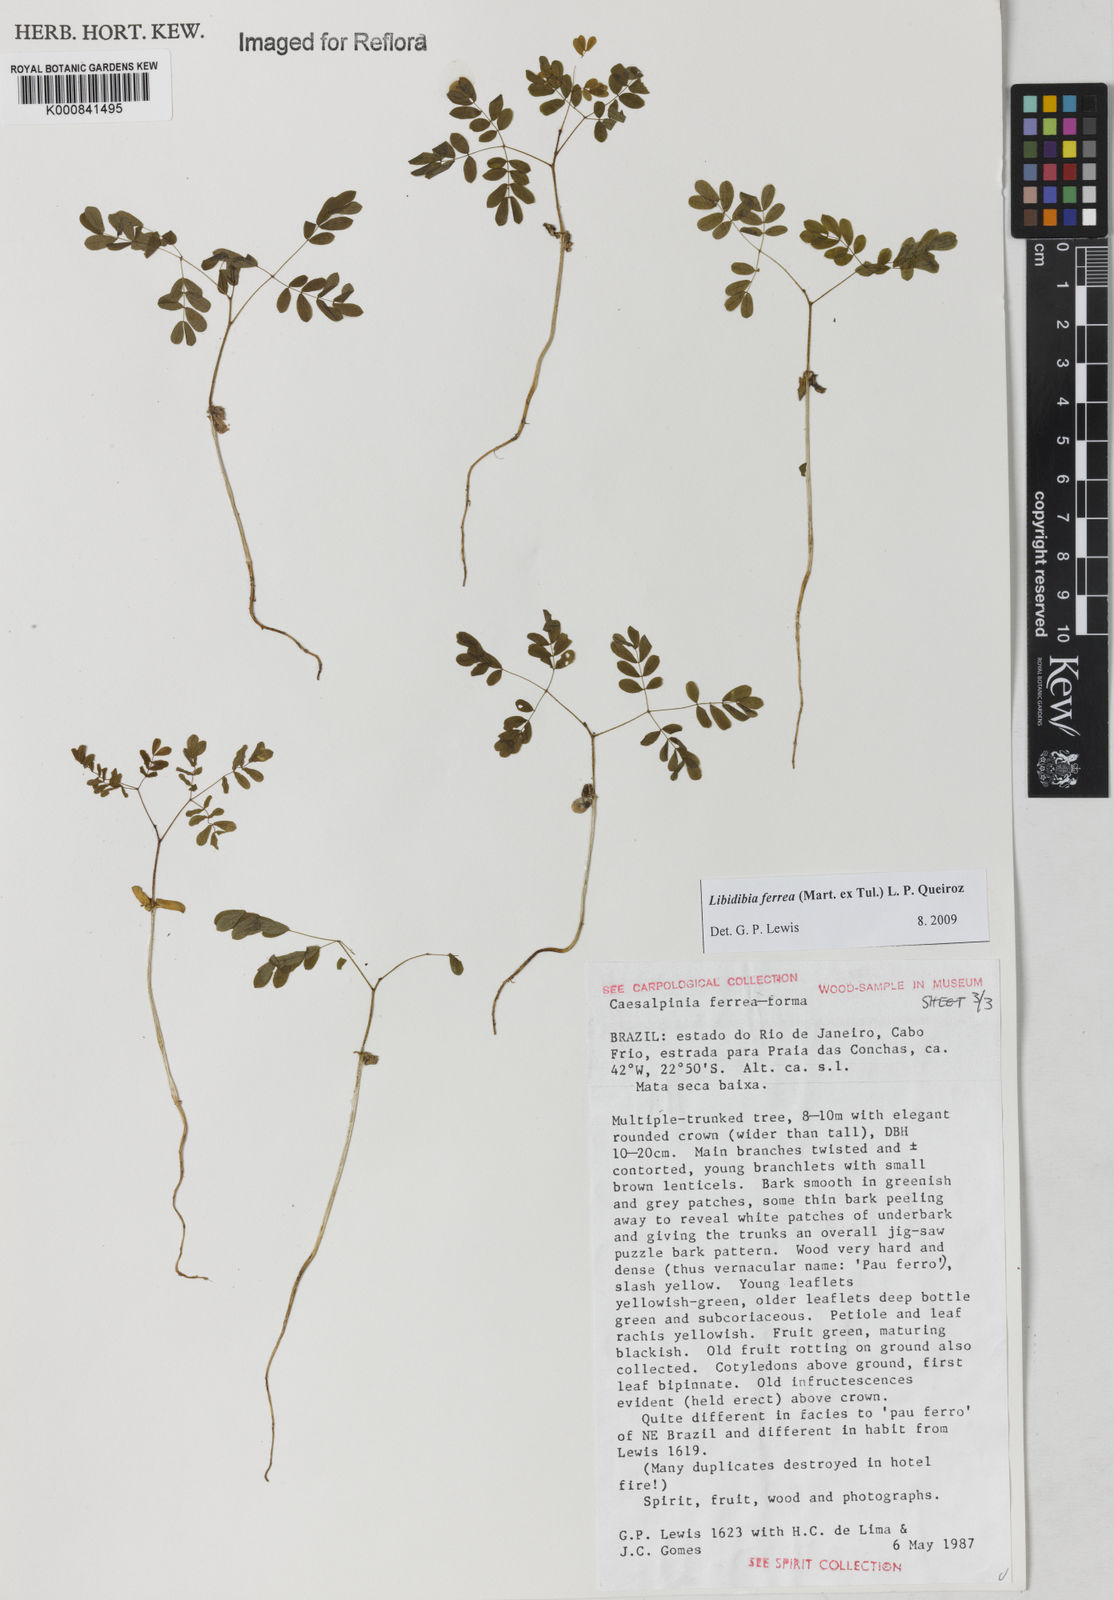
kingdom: Plantae
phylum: Tracheophyta
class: Magnoliopsida
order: Fabales
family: Fabaceae
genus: Libidibia
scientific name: Libidibia ferrea
